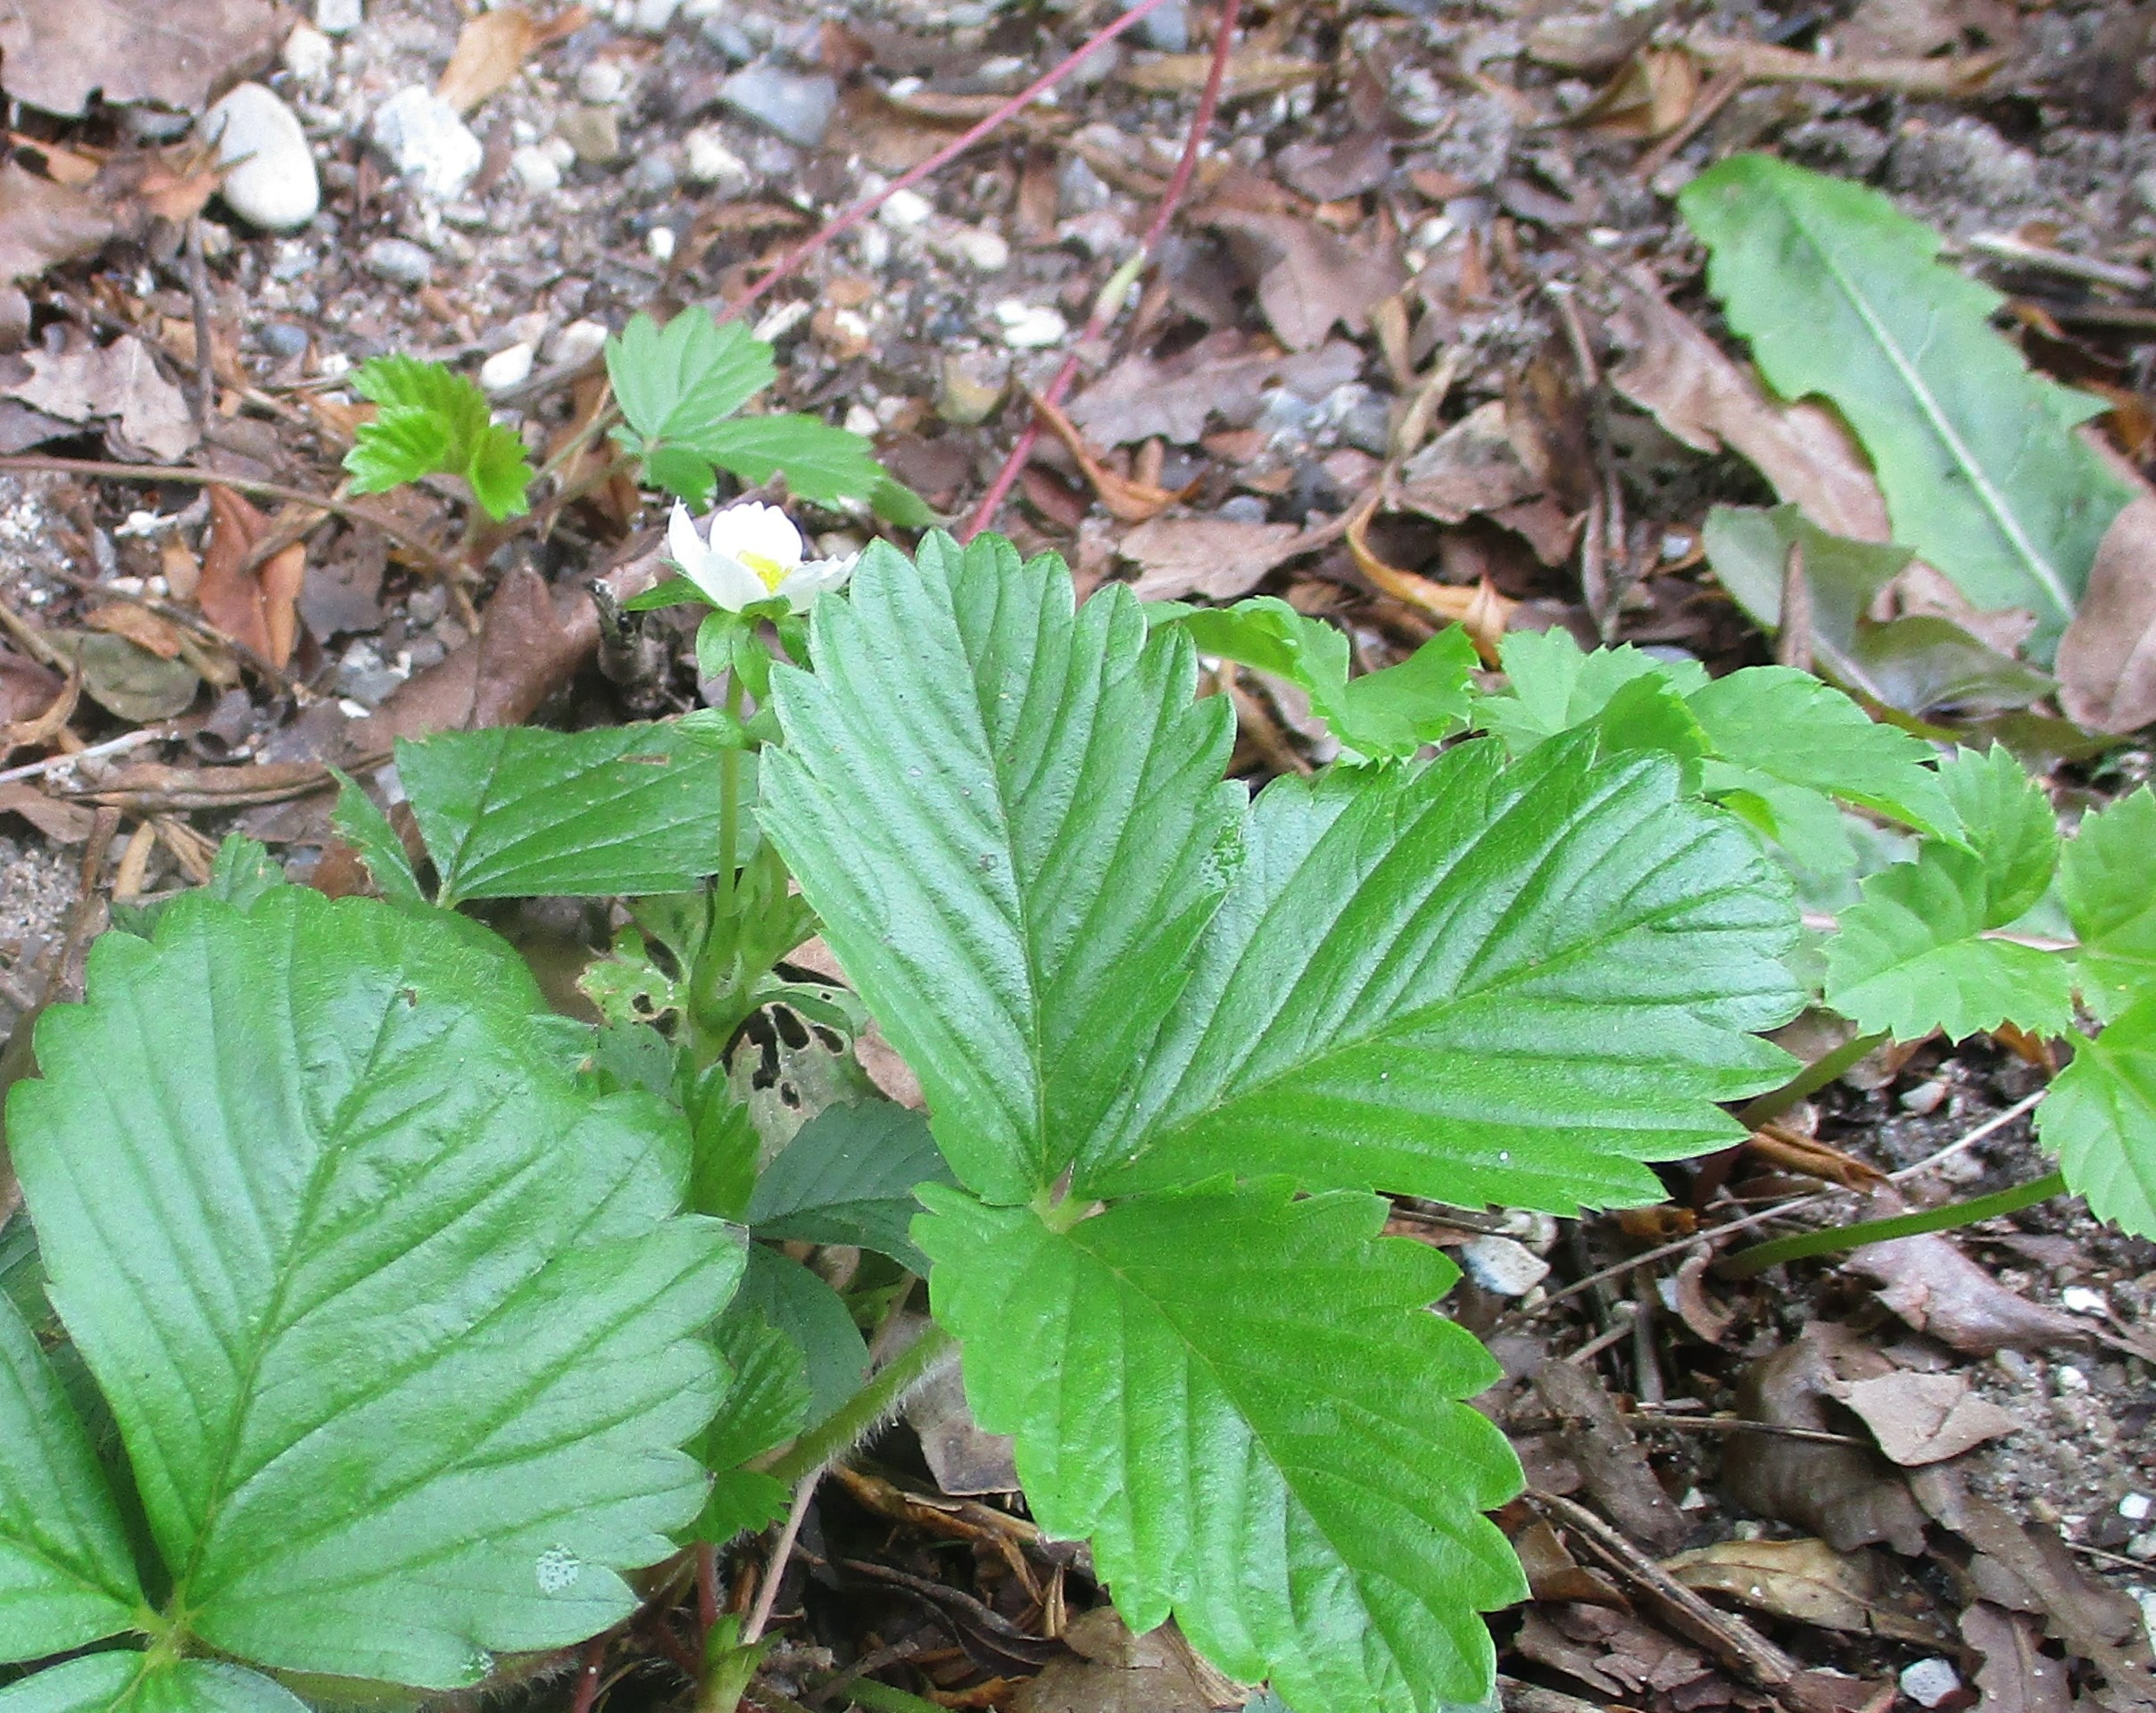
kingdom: Plantae
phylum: Tracheophyta
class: Magnoliopsida
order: Rosales
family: Rosaceae
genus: Fragaria
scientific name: Fragaria vesca
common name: Skov-jordbær
